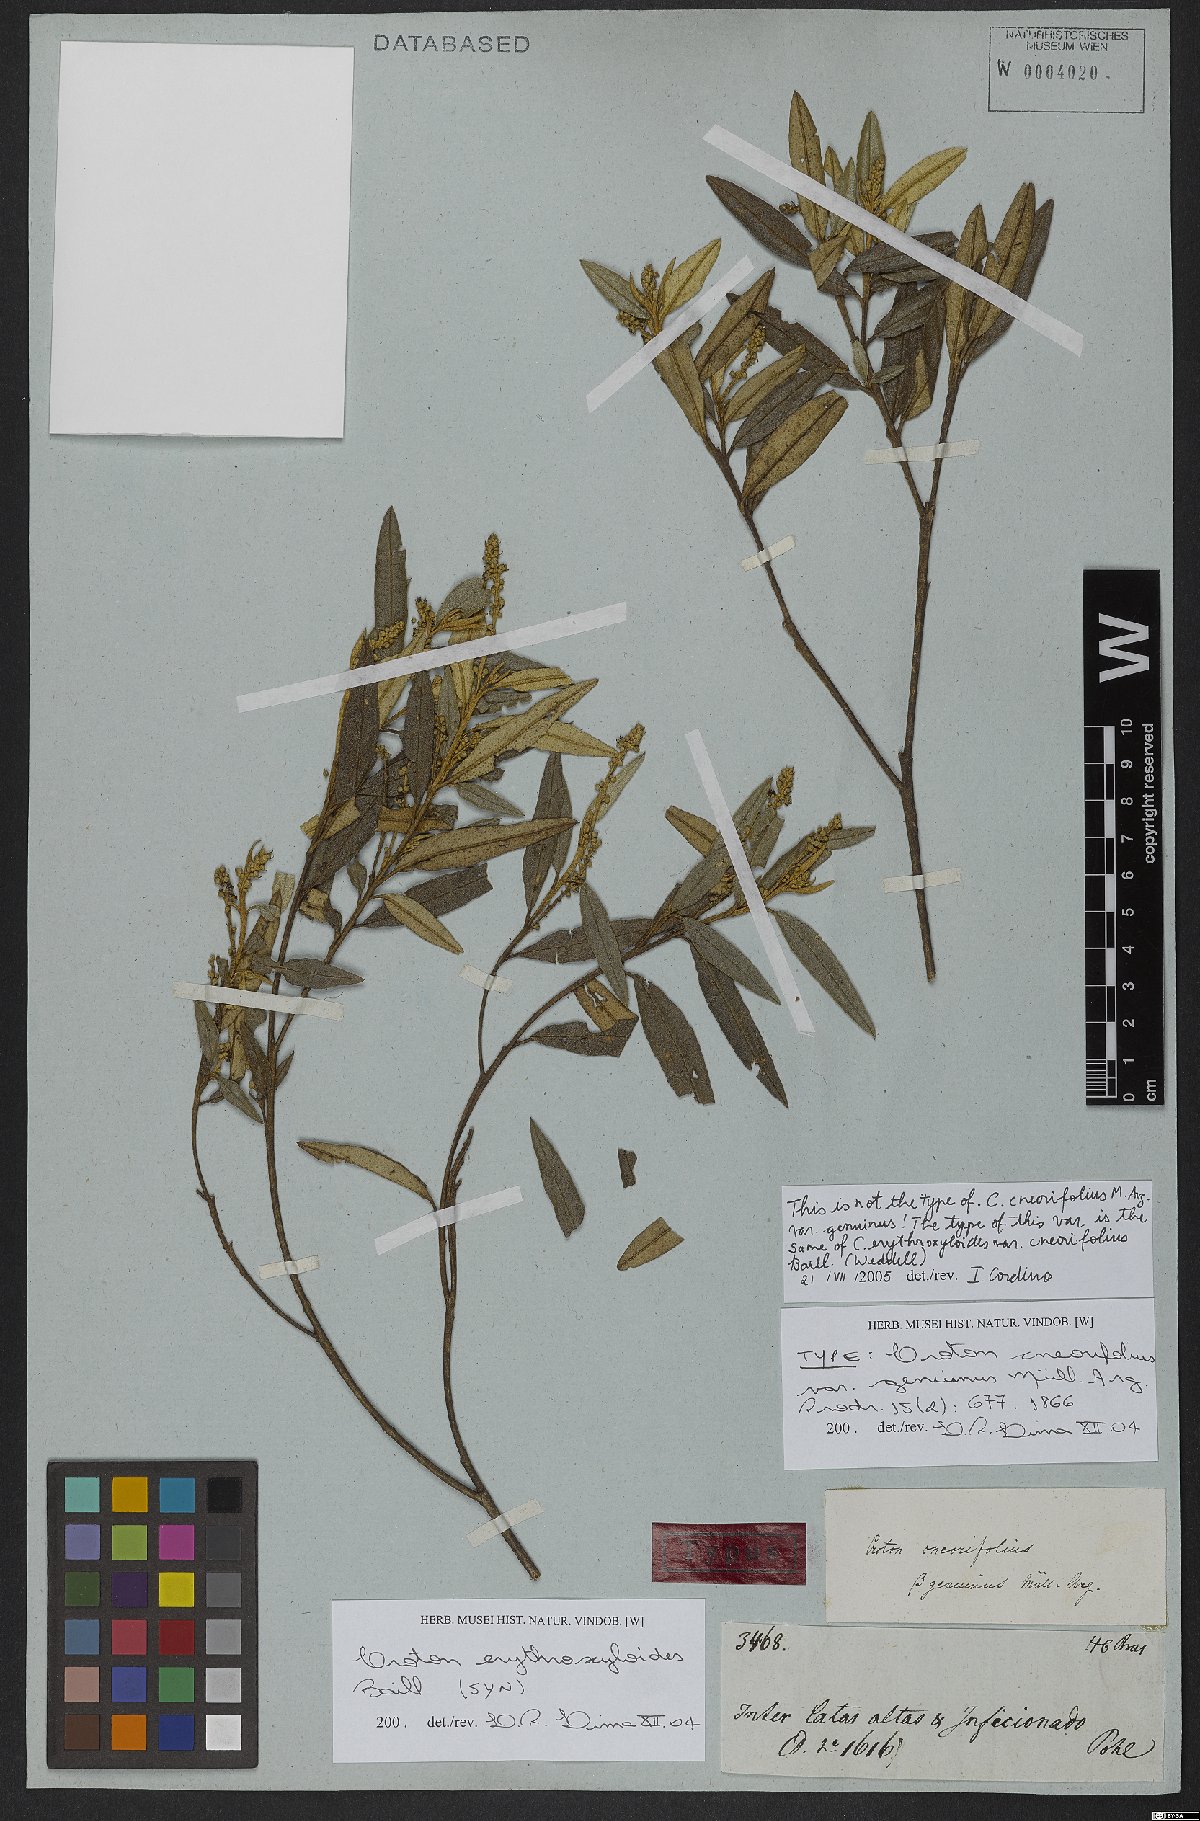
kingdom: Plantae
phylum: Tracheophyta
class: Magnoliopsida
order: Malpighiales
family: Euphorbiaceae
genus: Croton
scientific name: Croton erythroxyloides
